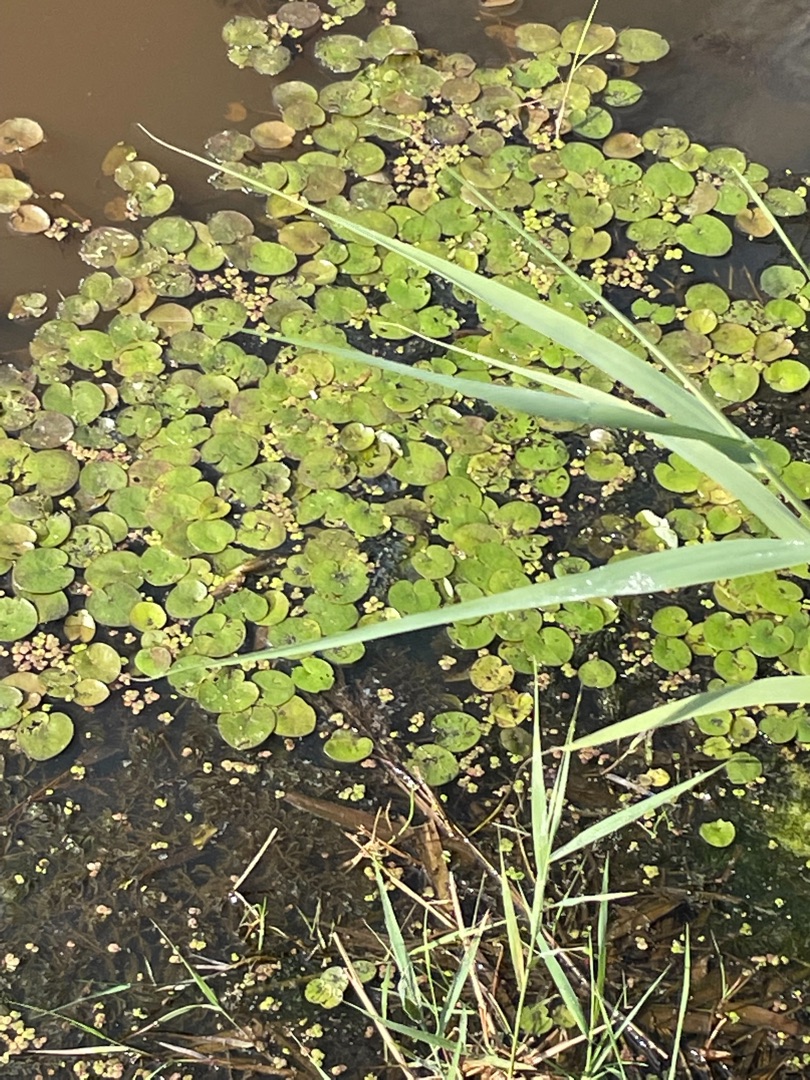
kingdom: Plantae
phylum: Tracheophyta
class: Liliopsida
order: Alismatales
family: Hydrocharitaceae
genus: Hydrocharis
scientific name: Hydrocharis morsus-ranae
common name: Frøbid
